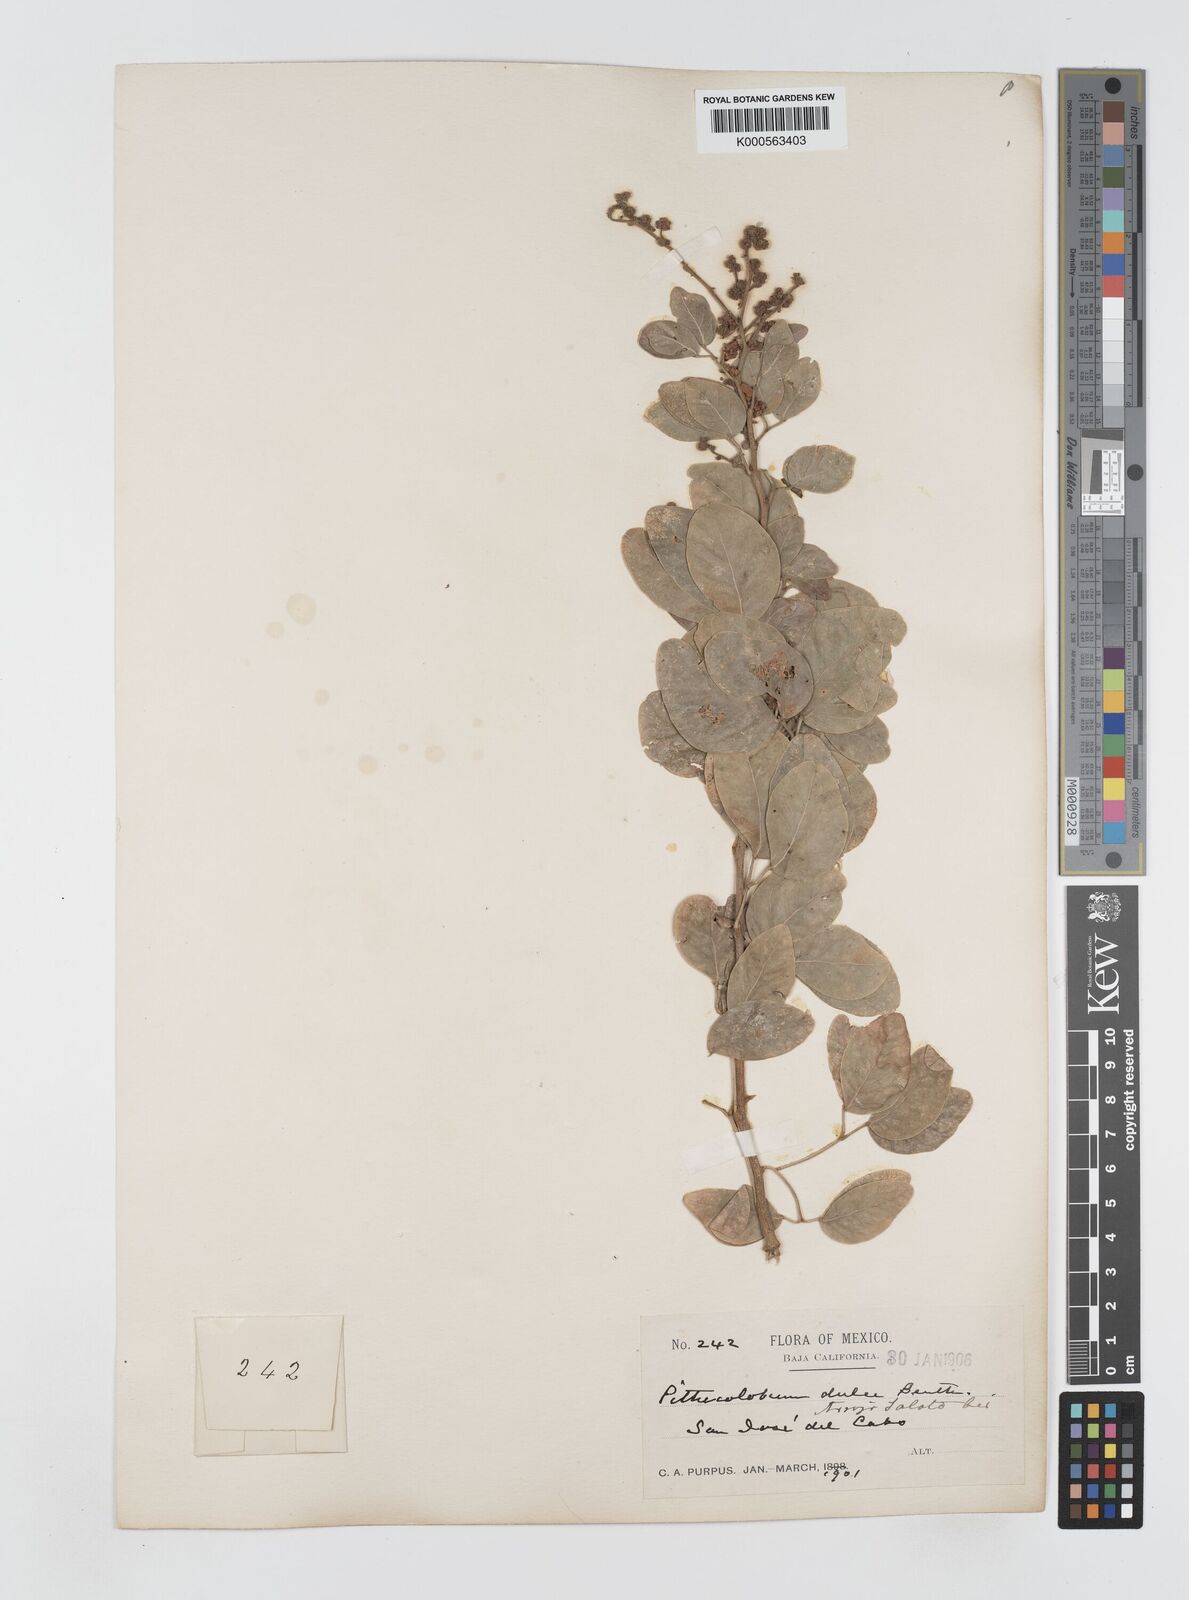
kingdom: Plantae
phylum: Tracheophyta
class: Magnoliopsida
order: Fabales
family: Fabaceae
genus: Pithecellobium
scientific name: Pithecellobium dulce
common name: Monkeypod
